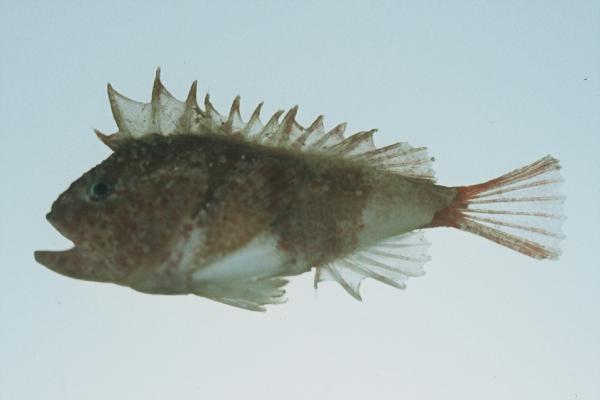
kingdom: Animalia
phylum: Chordata
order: Scorpaeniformes
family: Tetrarogidae
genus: Coccotropsis
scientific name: Coccotropsis gymnoderma
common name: Smooth-skin scorpionfish
